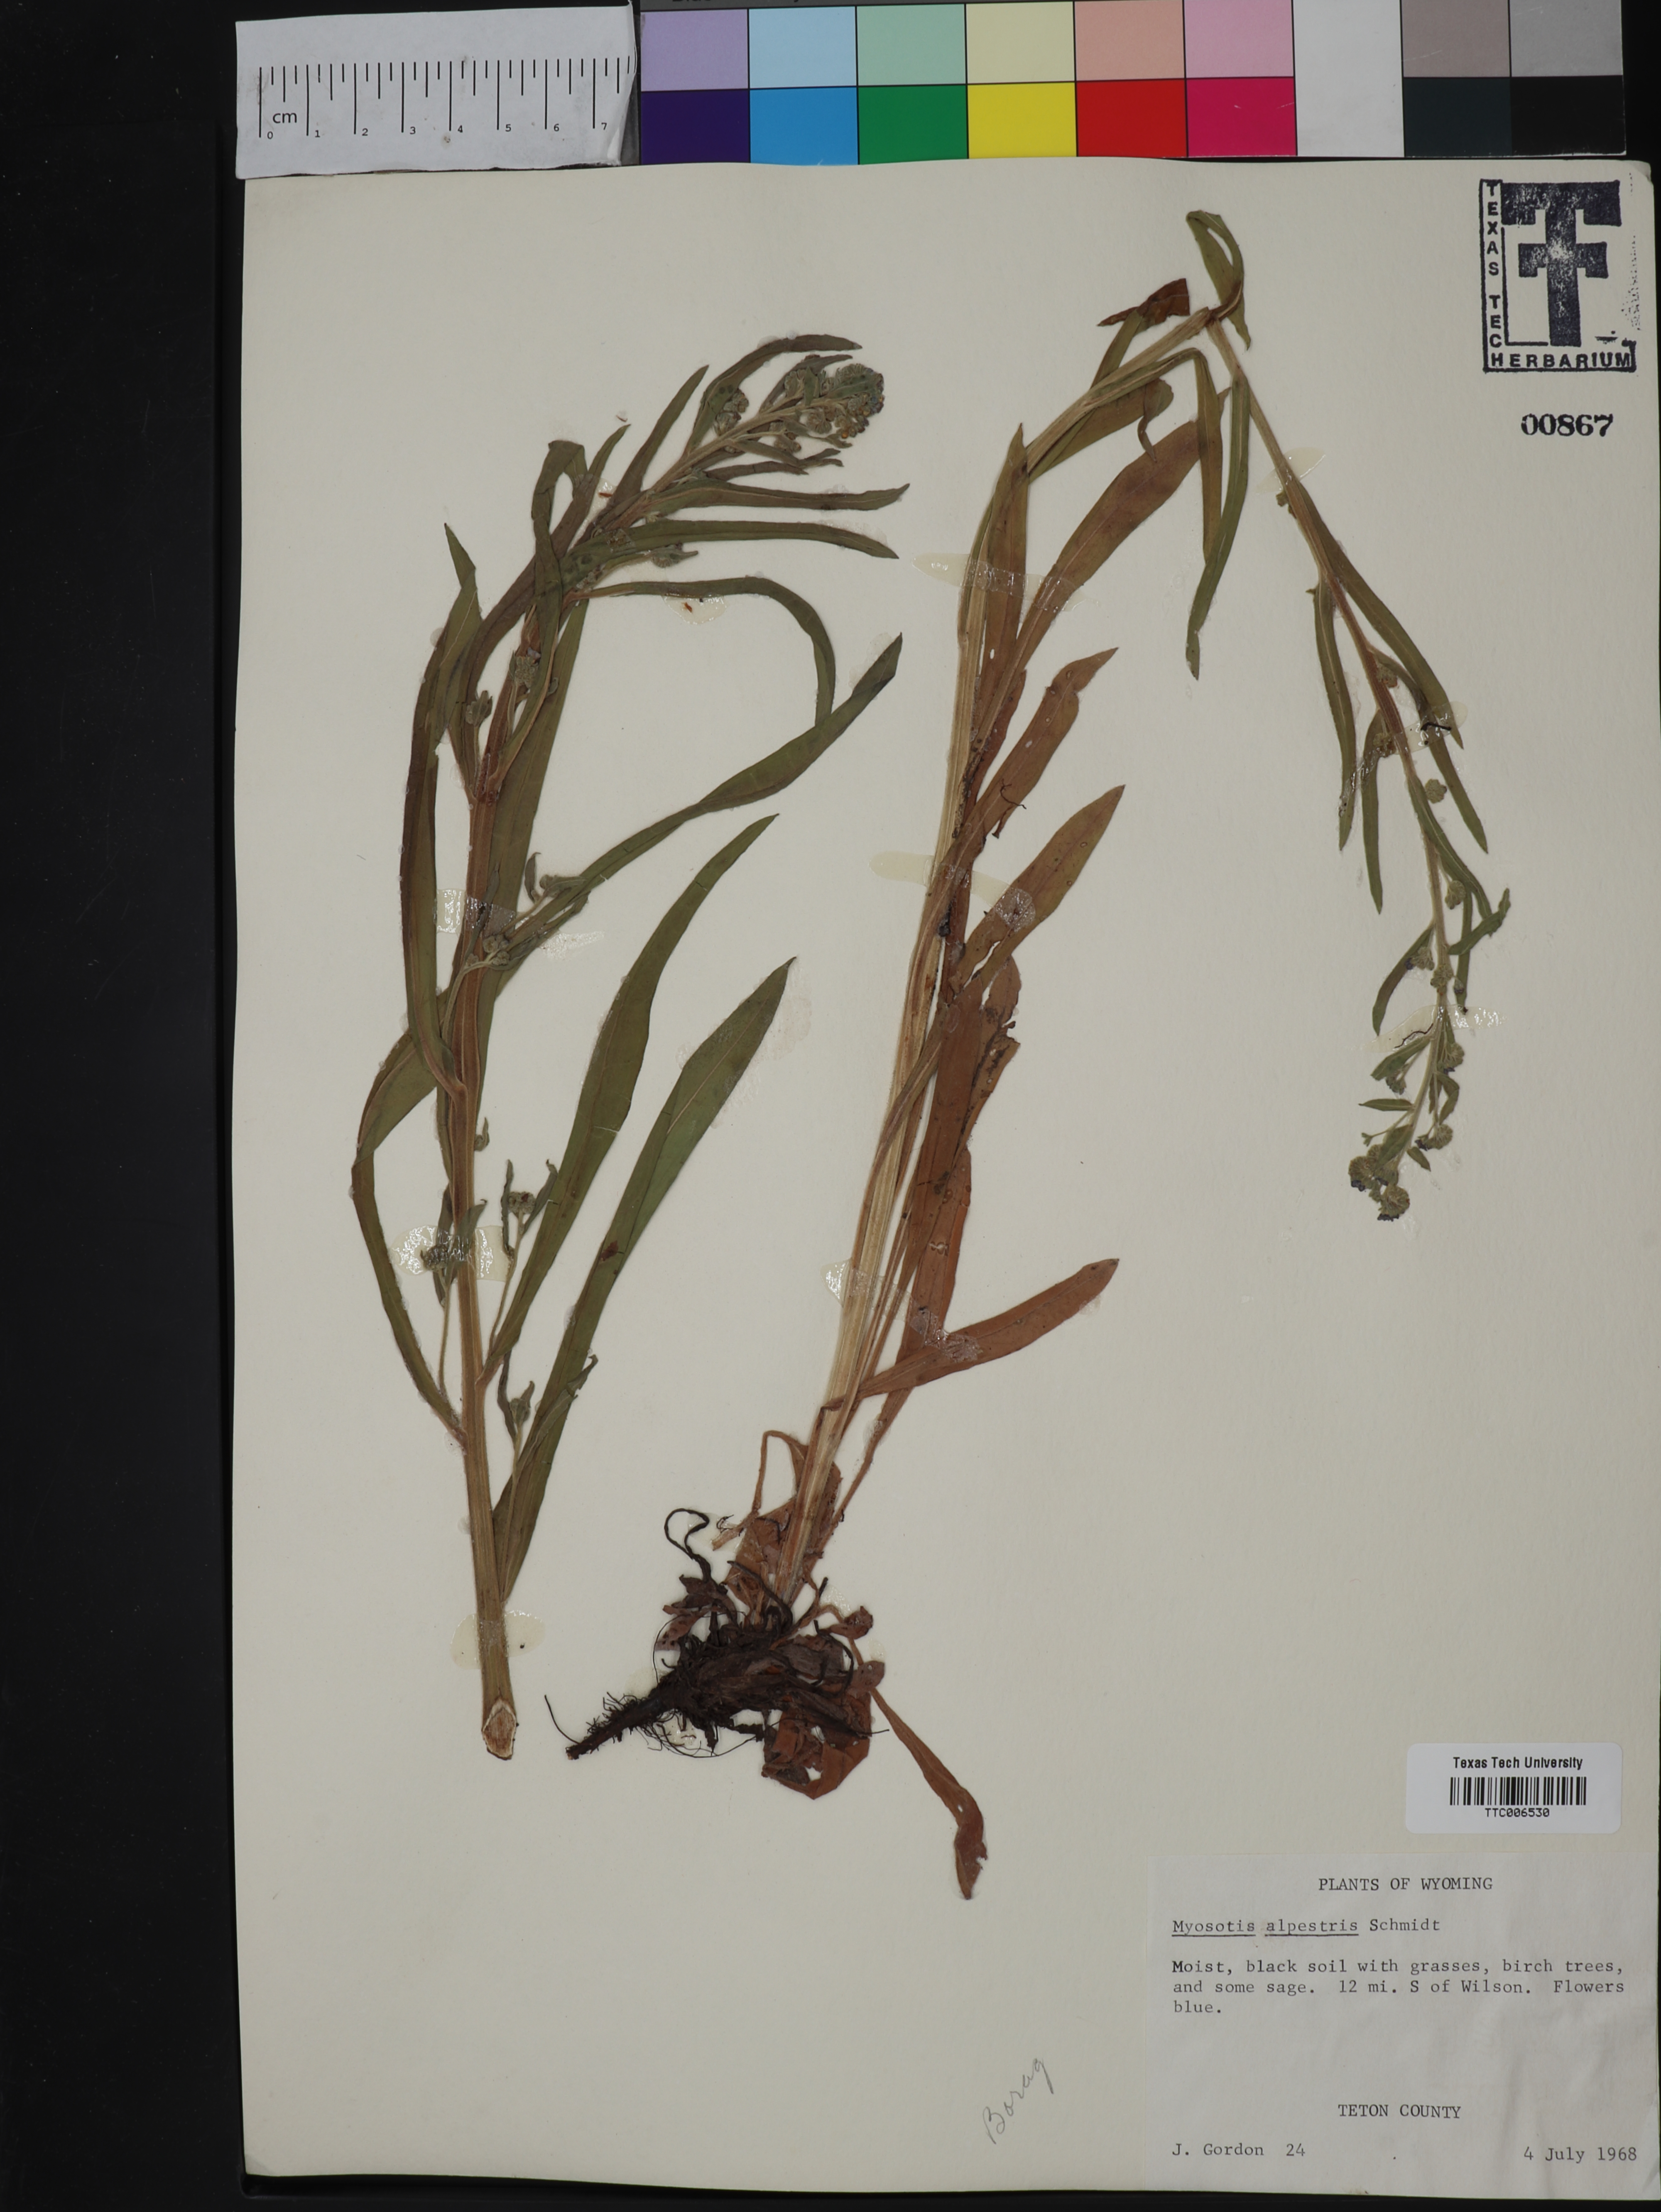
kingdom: Plantae
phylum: Tracheophyta
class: Magnoliopsida
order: Boraginales
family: Boraginaceae
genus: Myosotis
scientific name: Myosotis alpestris
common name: Alpine forget-me-not
